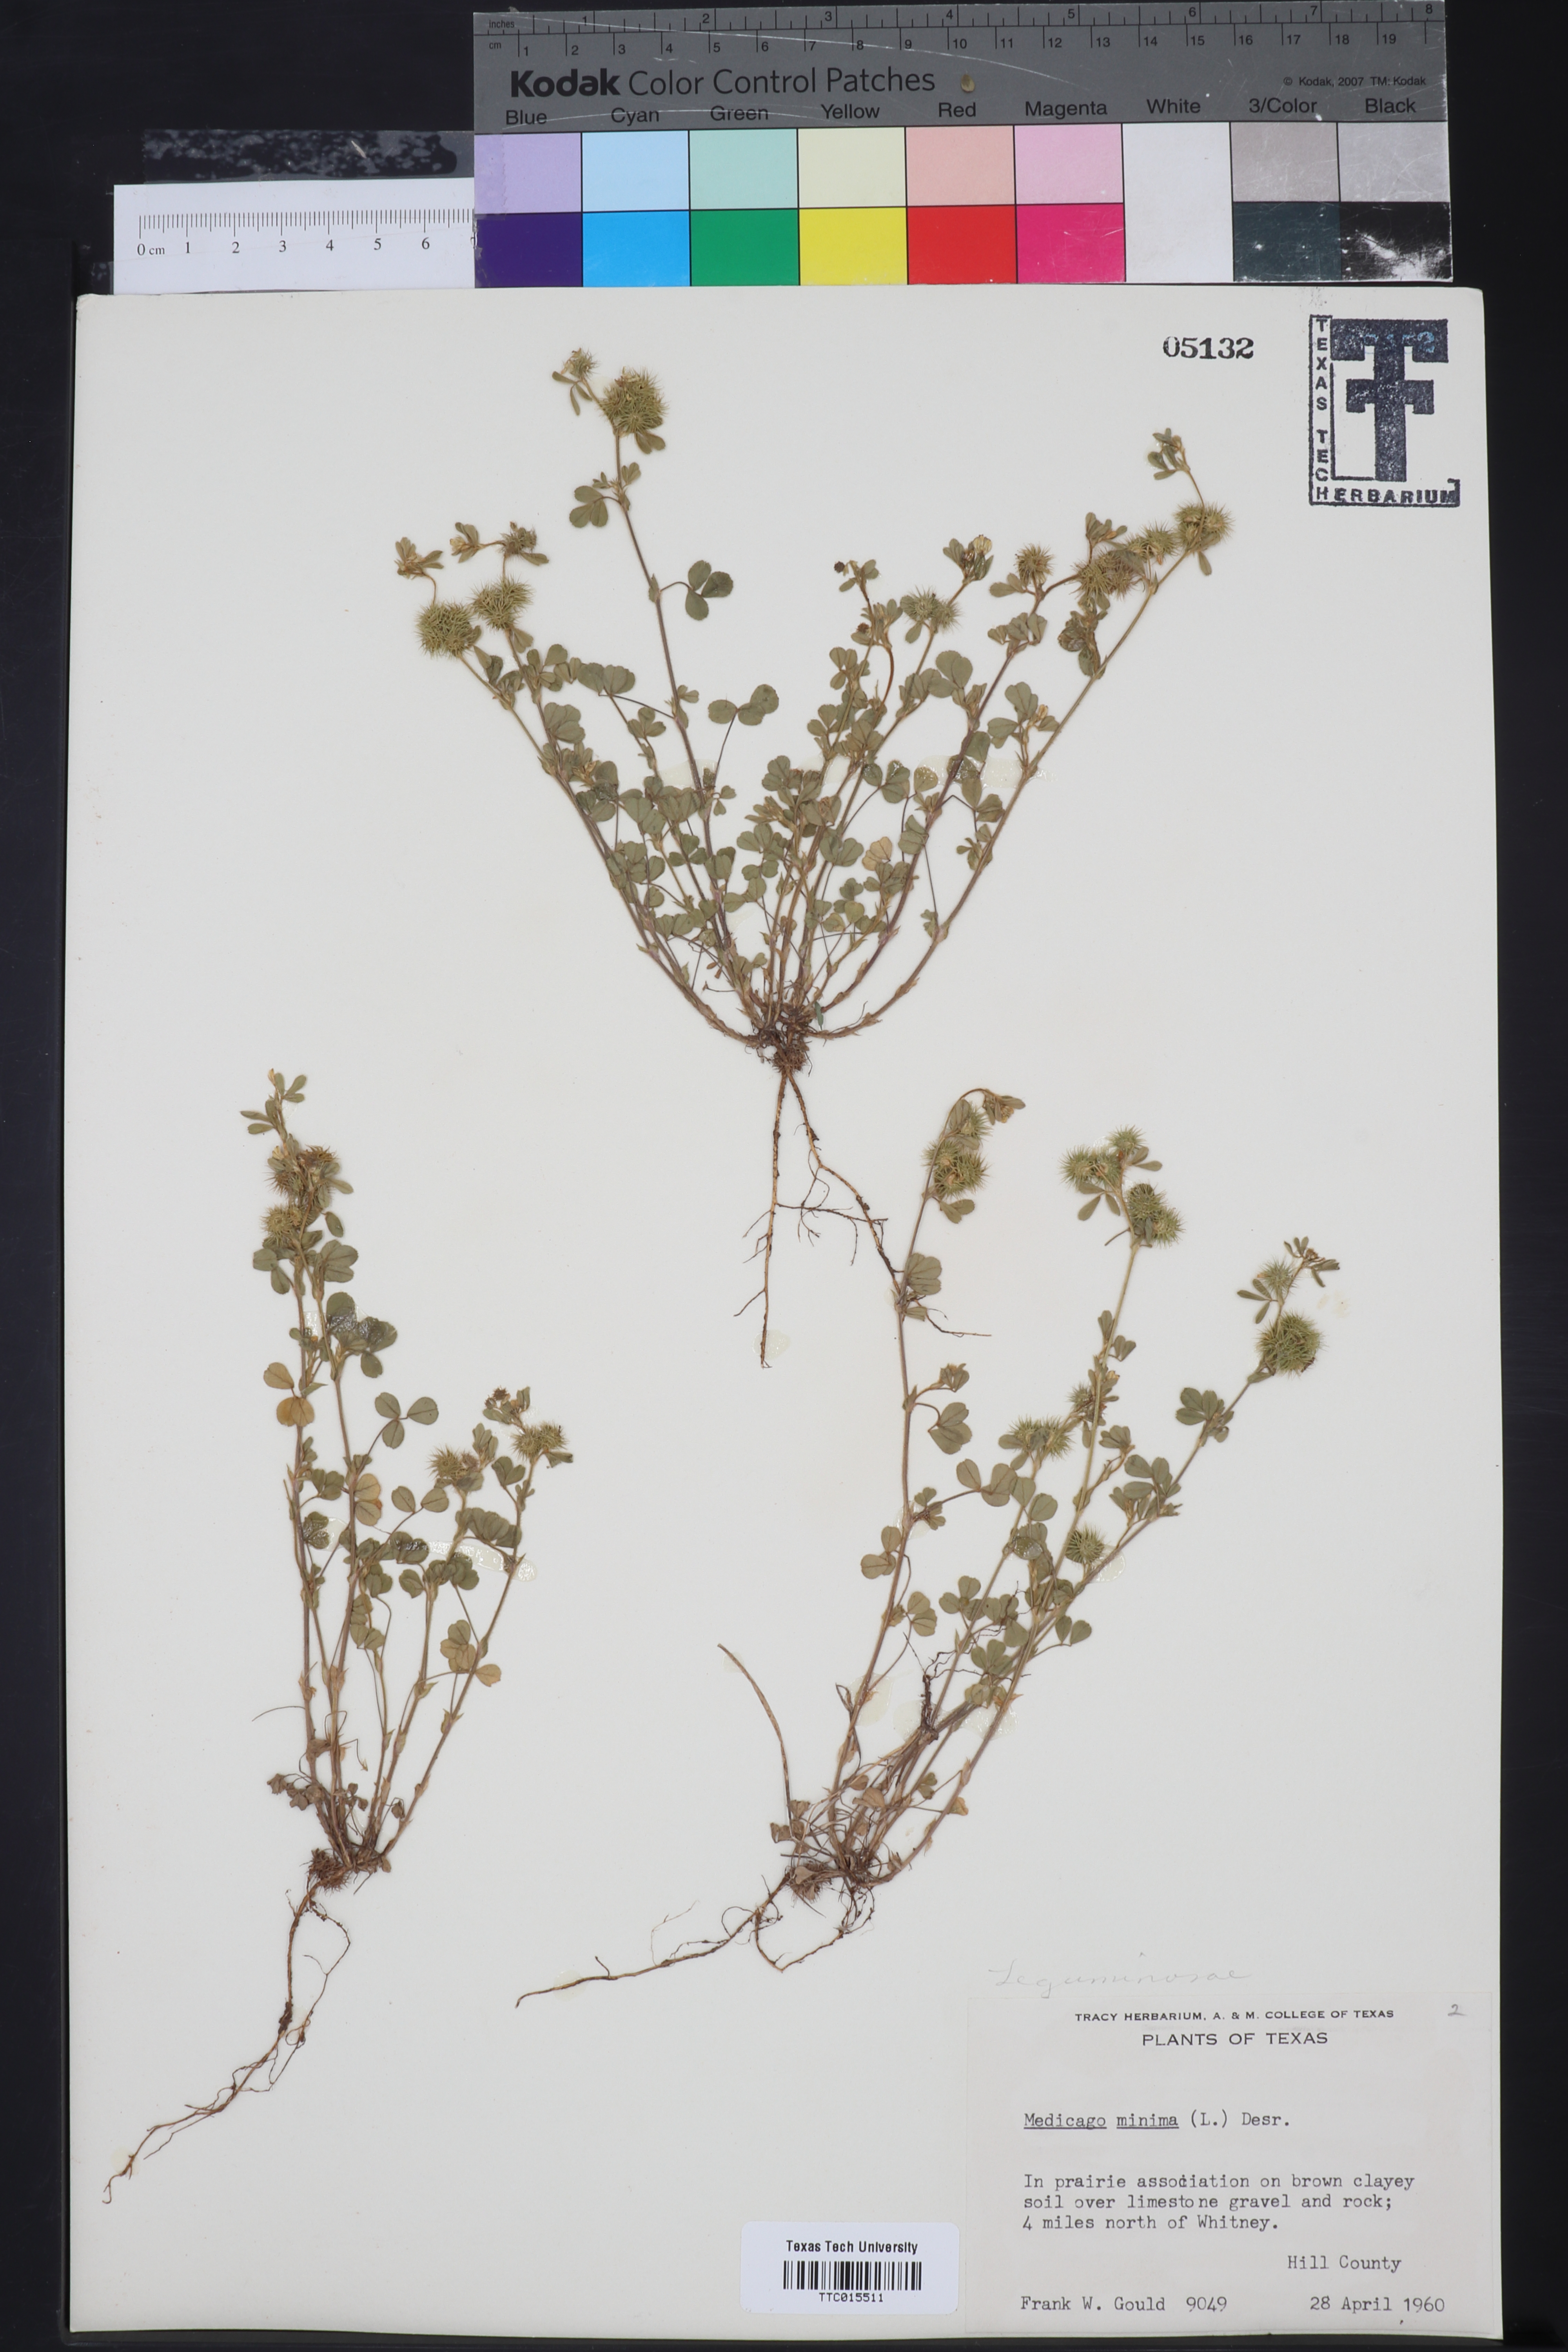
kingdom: Plantae
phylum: Tracheophyta
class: Magnoliopsida
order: Fabales
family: Fabaceae
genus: Medicago
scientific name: Medicago minima
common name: Little bur-clover
